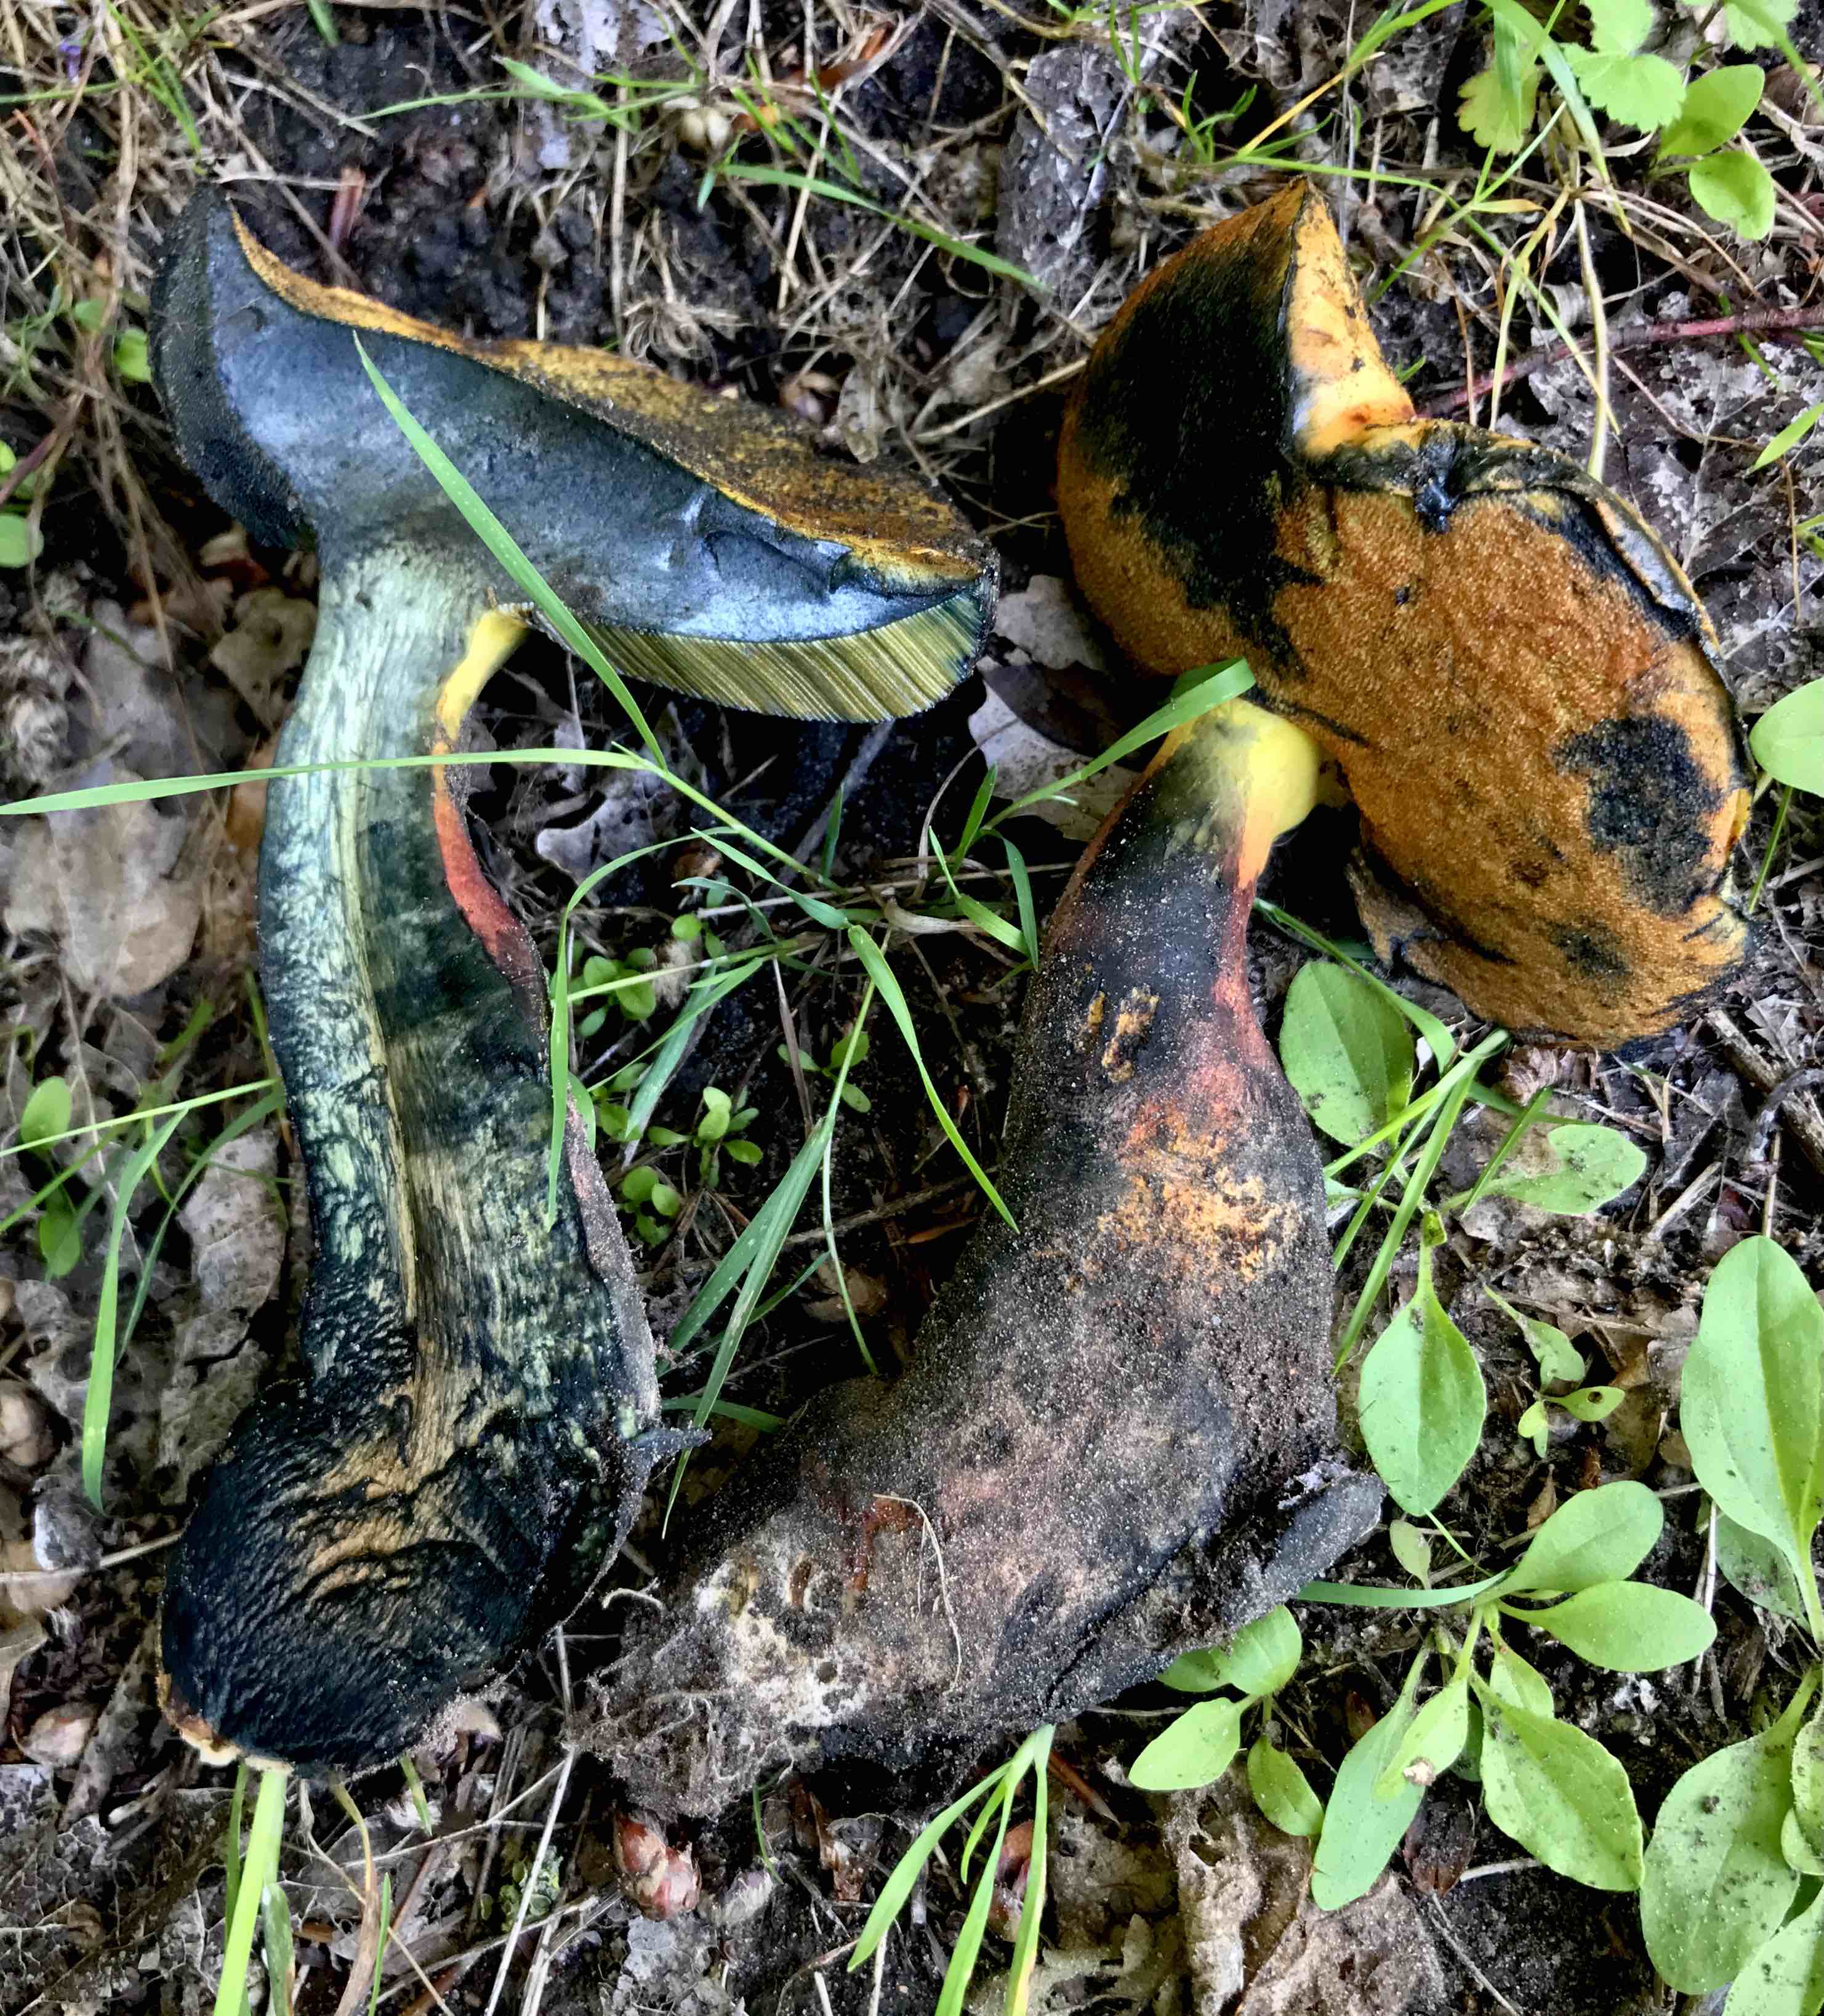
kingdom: Fungi
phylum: Basidiomycota
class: Agaricomycetes
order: Boletales
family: Boletaceae
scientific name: Boletaceae
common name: rørhatfamilien
